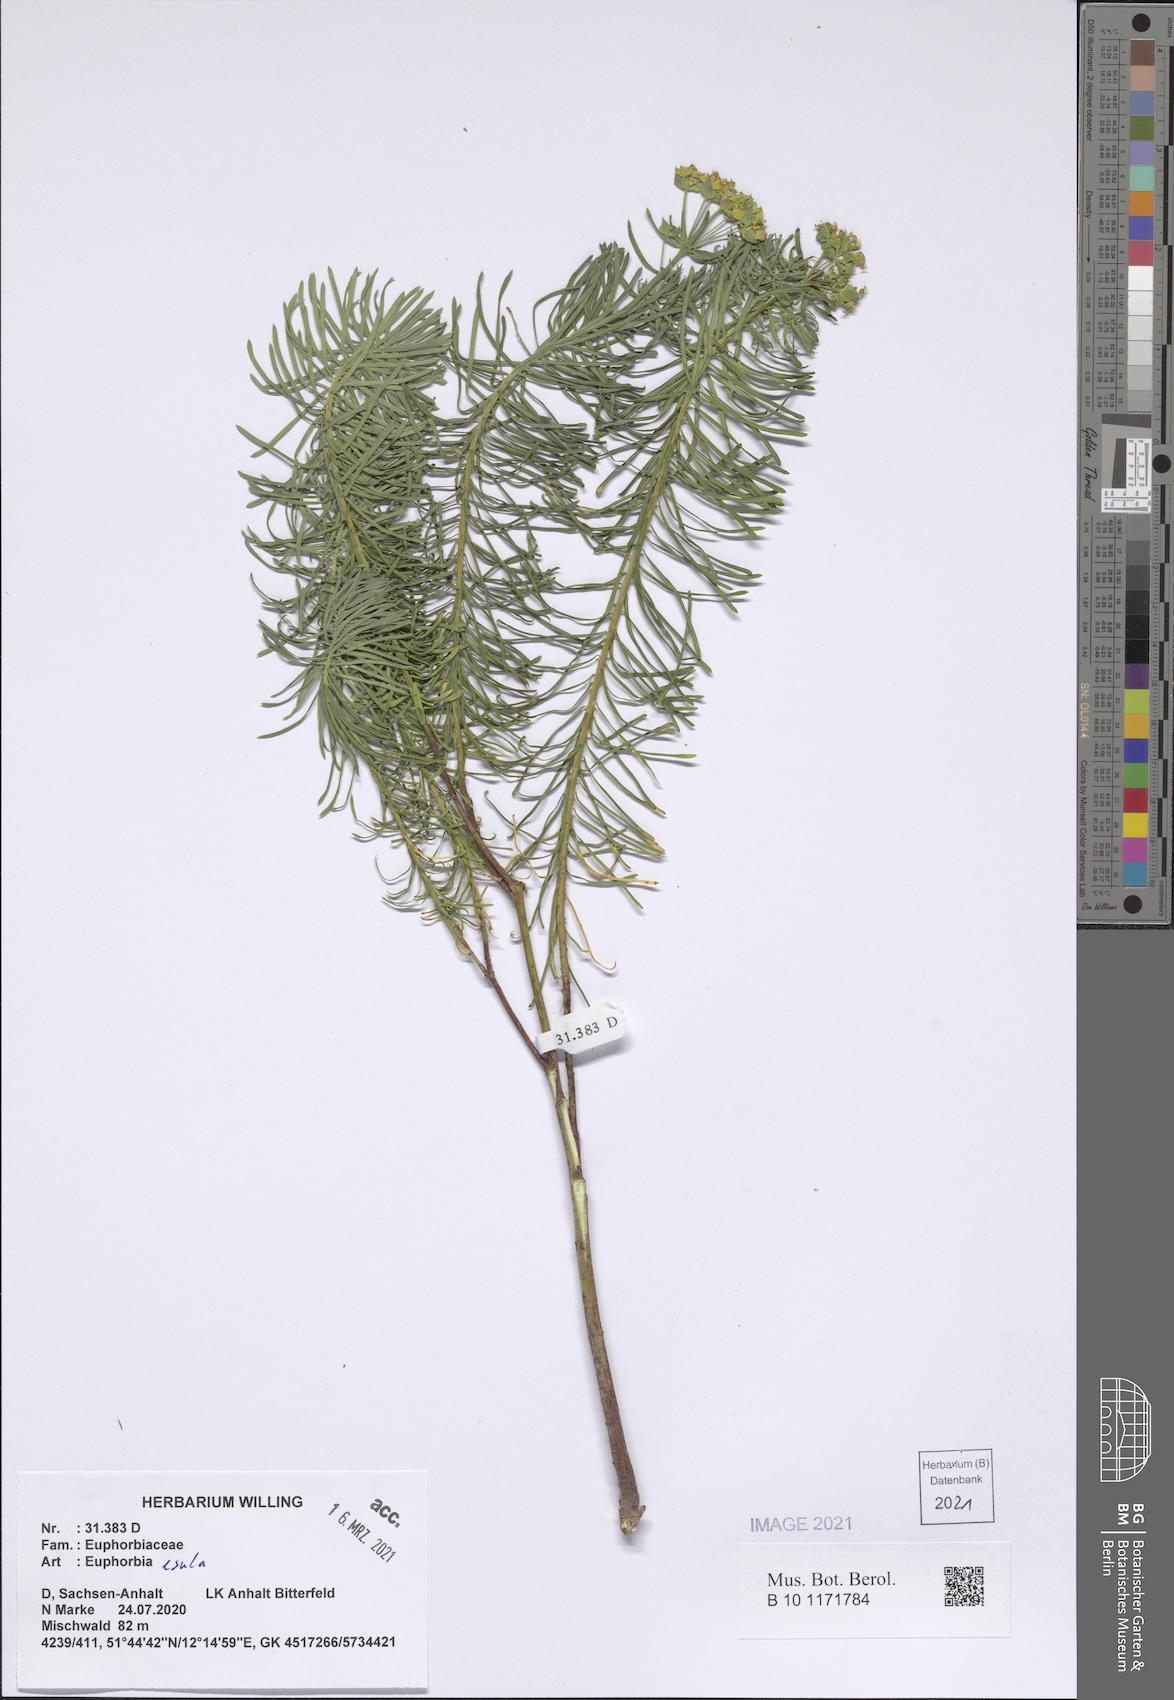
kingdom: Plantae
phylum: Tracheophyta
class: Magnoliopsida
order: Malpighiales
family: Euphorbiaceae
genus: Euphorbia
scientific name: Euphorbia esula
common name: Leafy spurge
